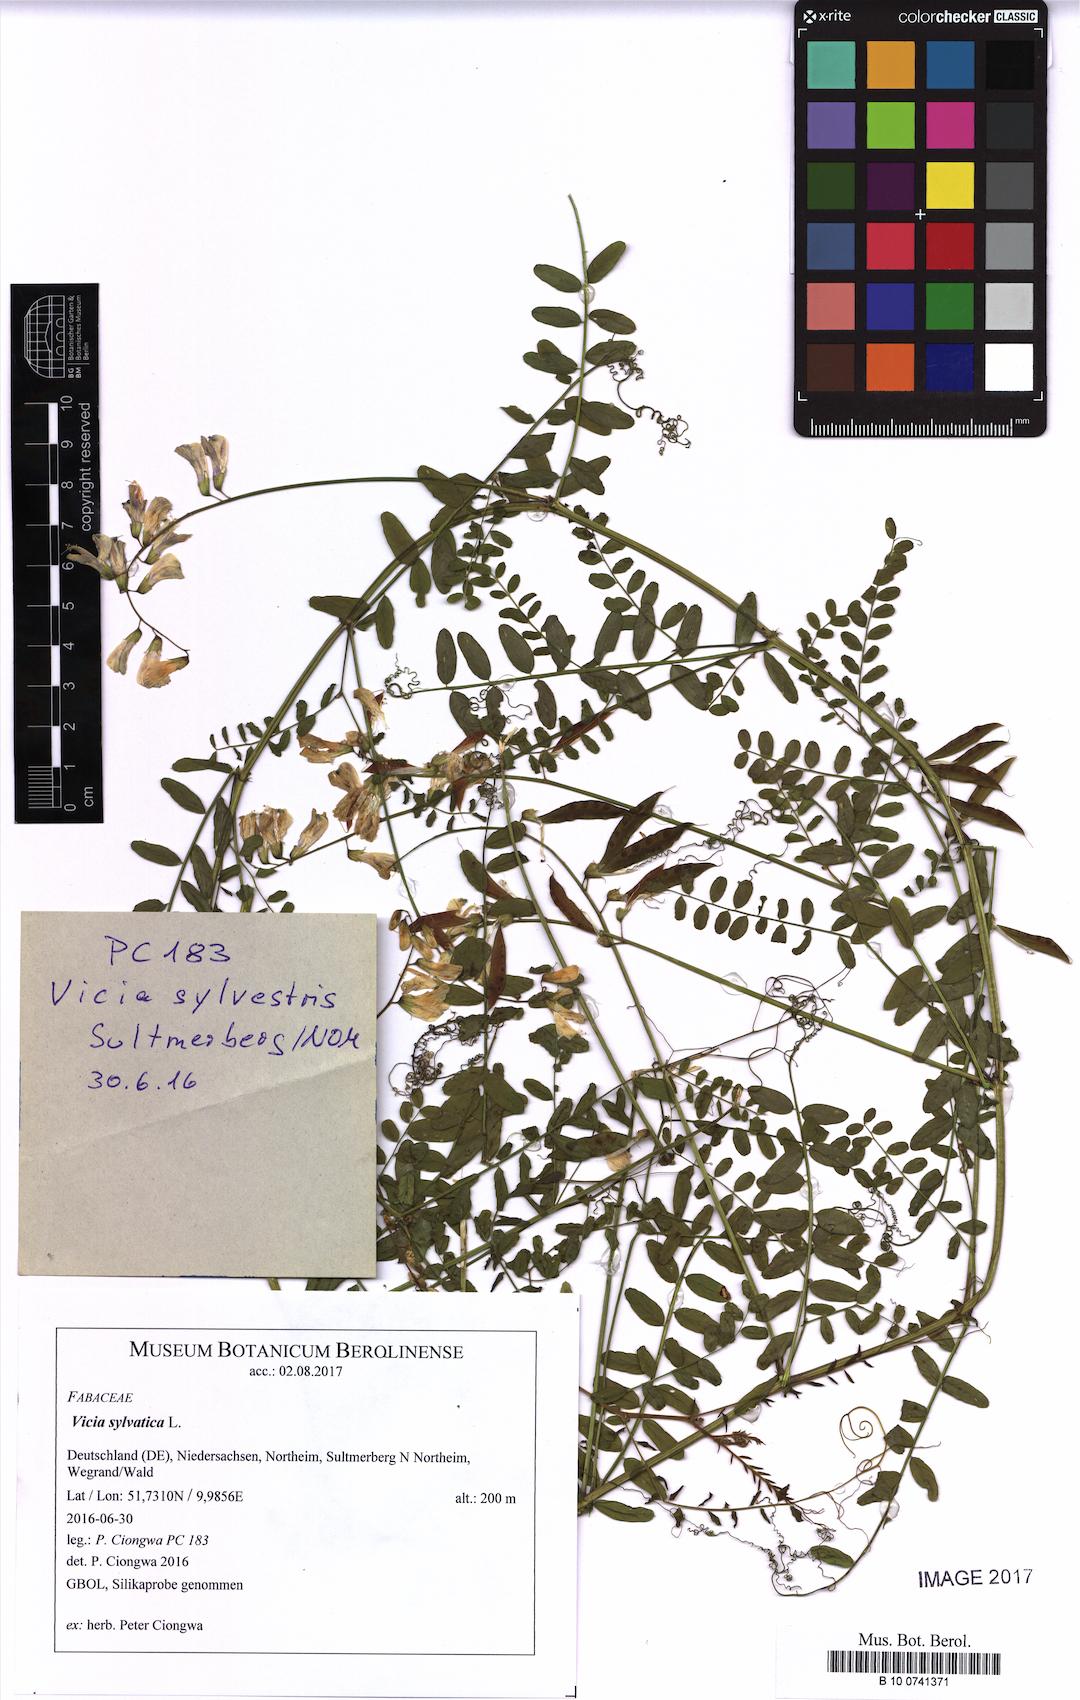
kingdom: Plantae
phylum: Tracheophyta
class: Magnoliopsida
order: Fabales
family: Fabaceae
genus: Vicia
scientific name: Vicia sylvatica
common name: Wood vetch
